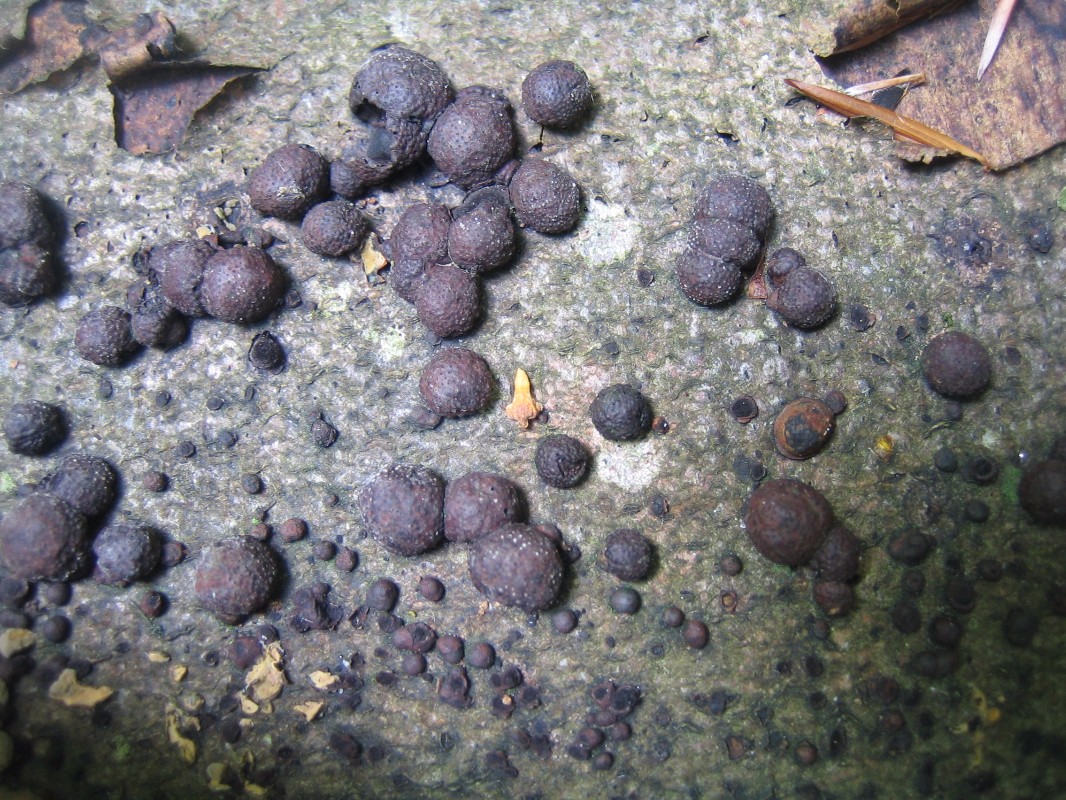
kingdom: Fungi
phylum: Ascomycota
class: Sordariomycetes
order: Xylariales
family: Hypoxylaceae
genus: Hypoxylon
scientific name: Hypoxylon fragiforme
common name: kuljordbær
